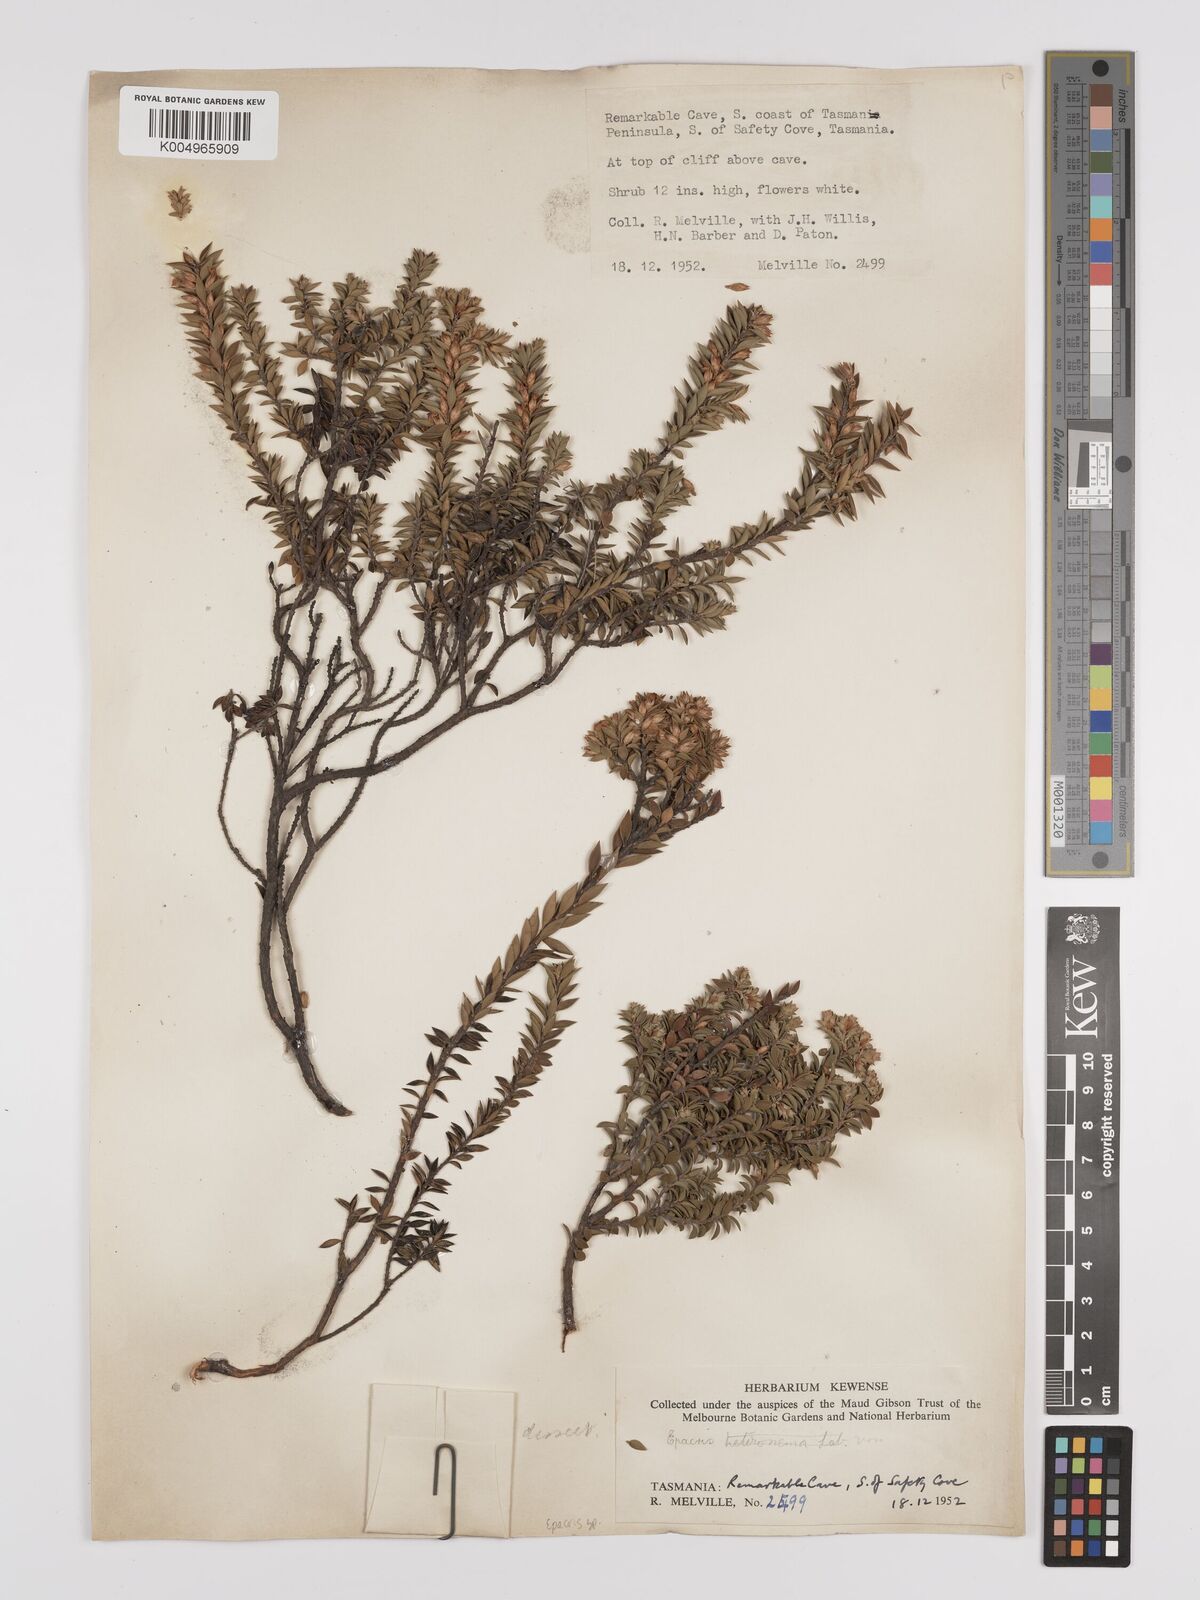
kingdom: Plantae
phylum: Tracheophyta
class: Magnoliopsida
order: Ericales
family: Ericaceae
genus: Epacris
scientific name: Epacris stuartii
